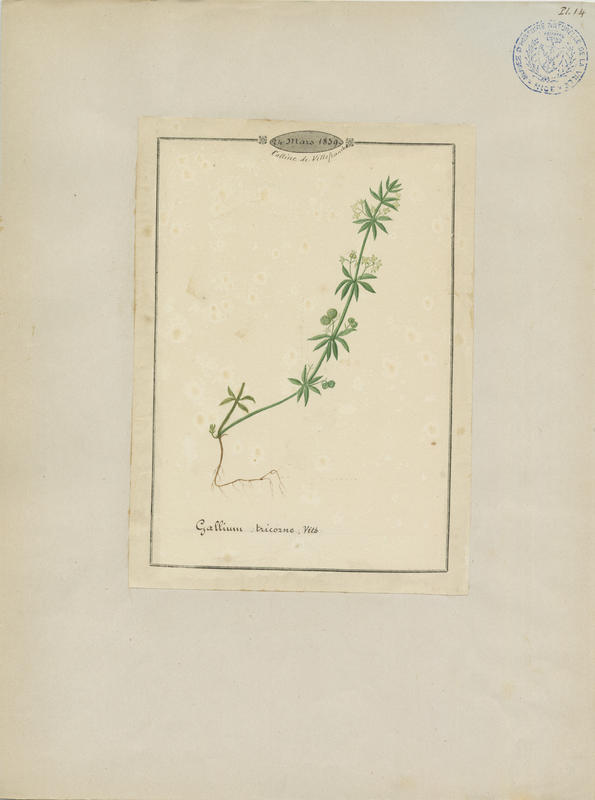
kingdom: Plantae
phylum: Tracheophyta
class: Magnoliopsida
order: Gentianales
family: Rubiaceae
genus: Galium
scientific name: Galium tricornutum
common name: Corn cleavers
